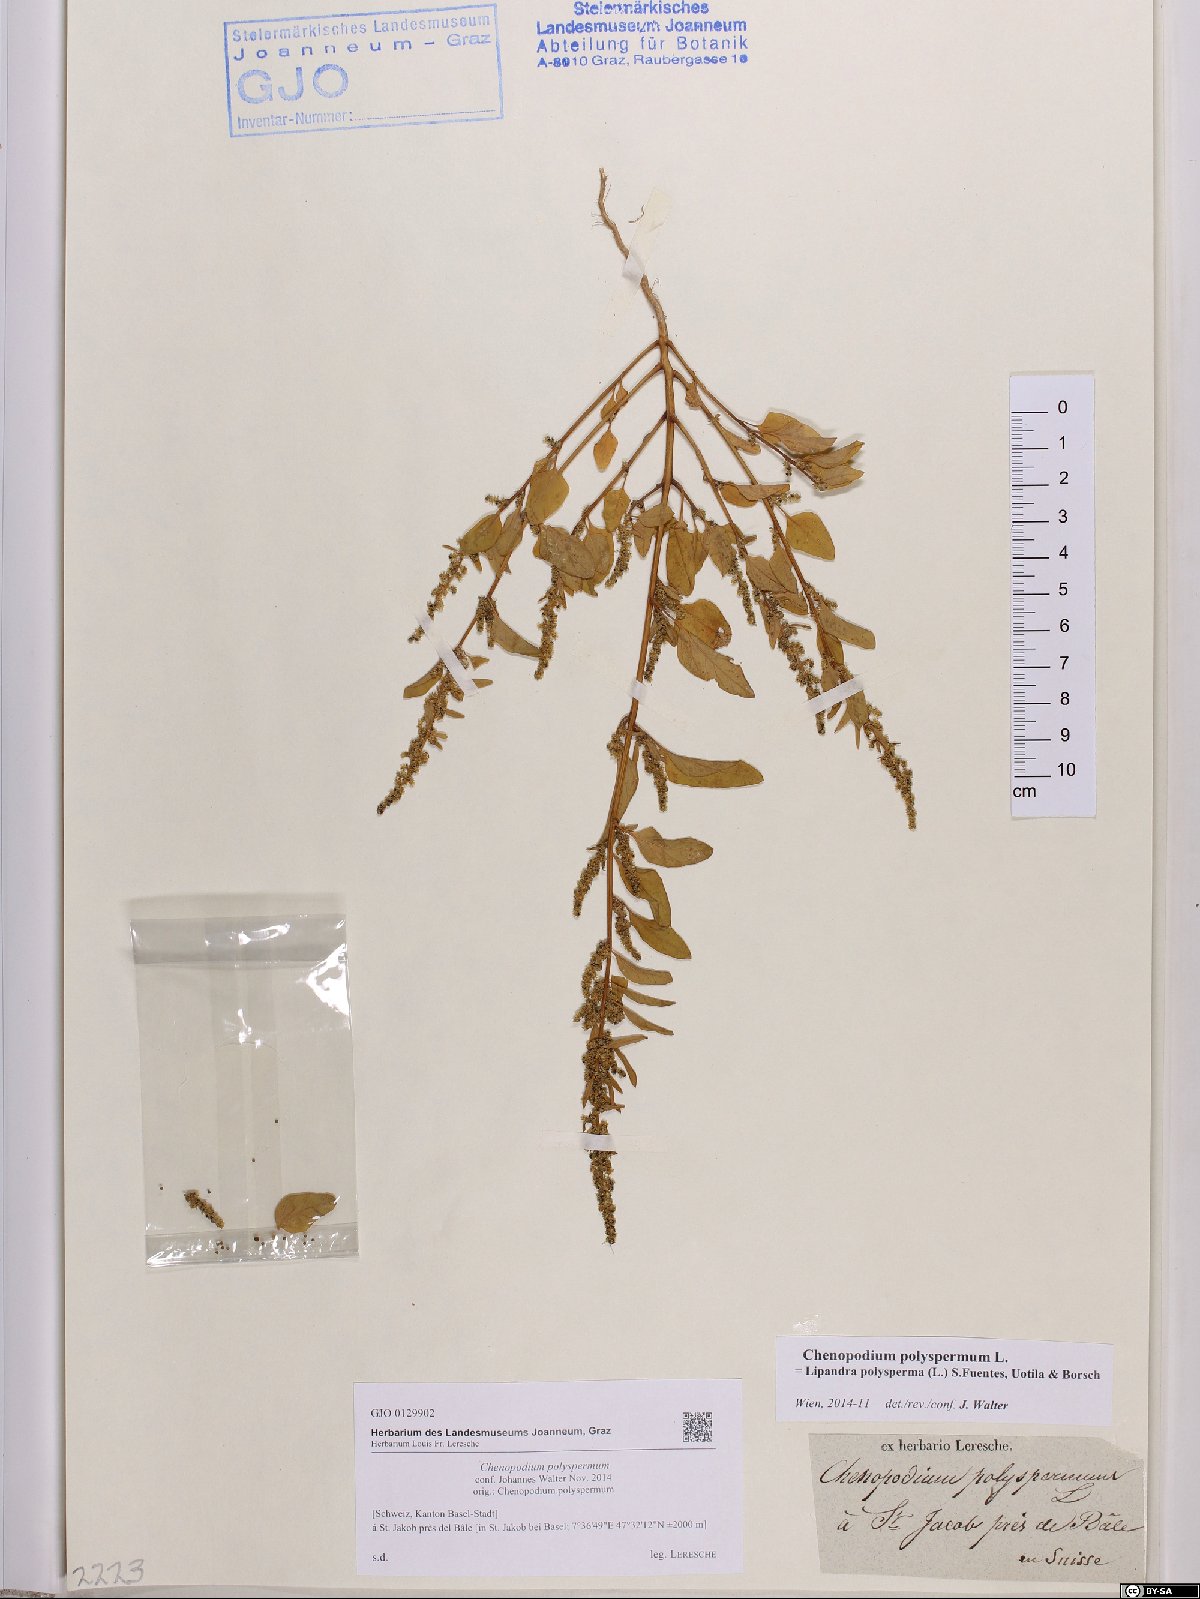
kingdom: Plantae
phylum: Tracheophyta
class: Magnoliopsida
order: Caryophyllales
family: Amaranthaceae
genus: Lipandra
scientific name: Lipandra polysperma
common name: Many-seed goosefoot
